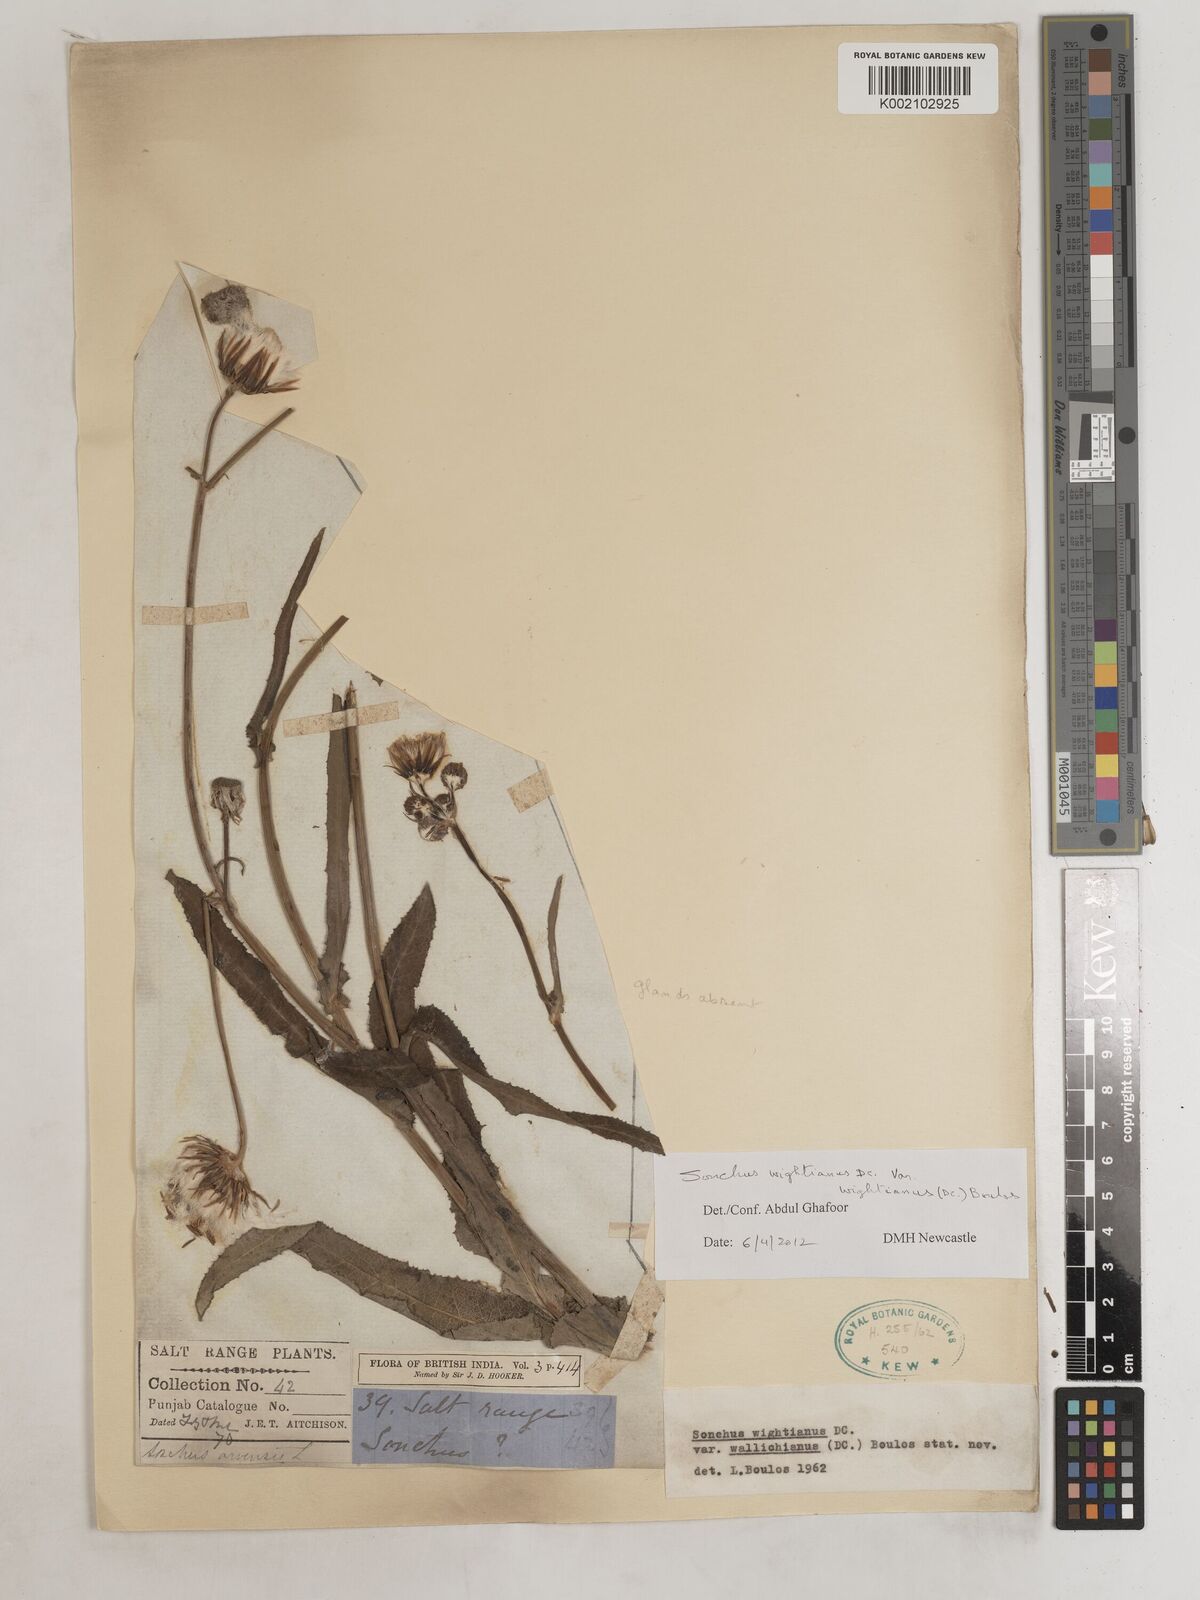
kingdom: Plantae
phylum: Tracheophyta
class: Magnoliopsida
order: Asterales
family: Asteraceae
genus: Sonchus
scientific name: Sonchus arvensis
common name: Perennial sow-thistle
